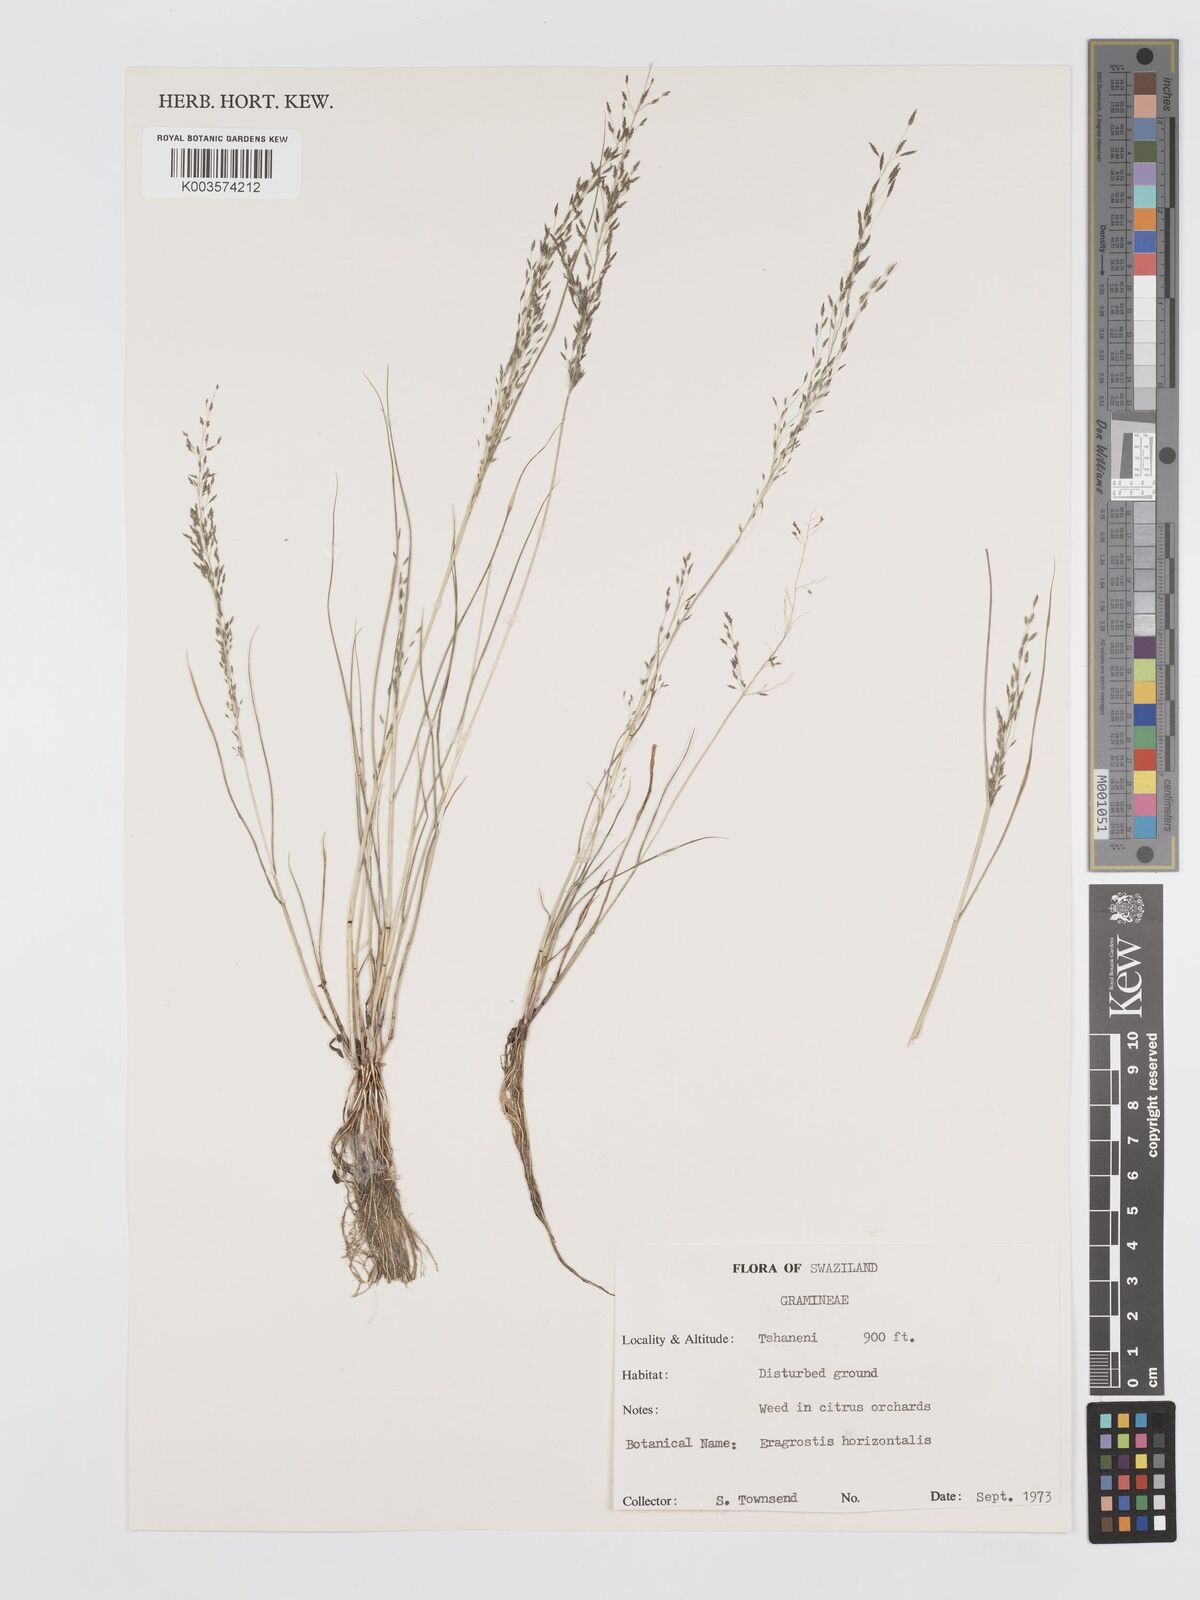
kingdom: Plantae
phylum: Tracheophyta
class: Liliopsida
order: Poales
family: Poaceae
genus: Eragrostis
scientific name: Eragrostis cylindriflora
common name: Cylinderflower lovegrass
